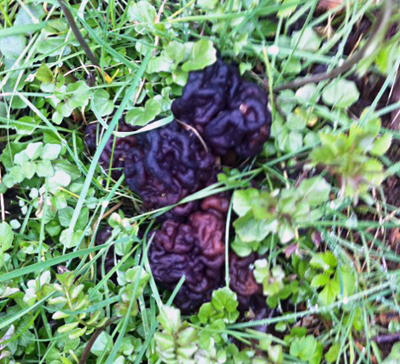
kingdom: Fungi
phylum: Ascomycota
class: Pezizomycetes
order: Pezizales
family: Discinaceae
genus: Gyromitra
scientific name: Gyromitra esculenta
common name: ægte stenmorkel
